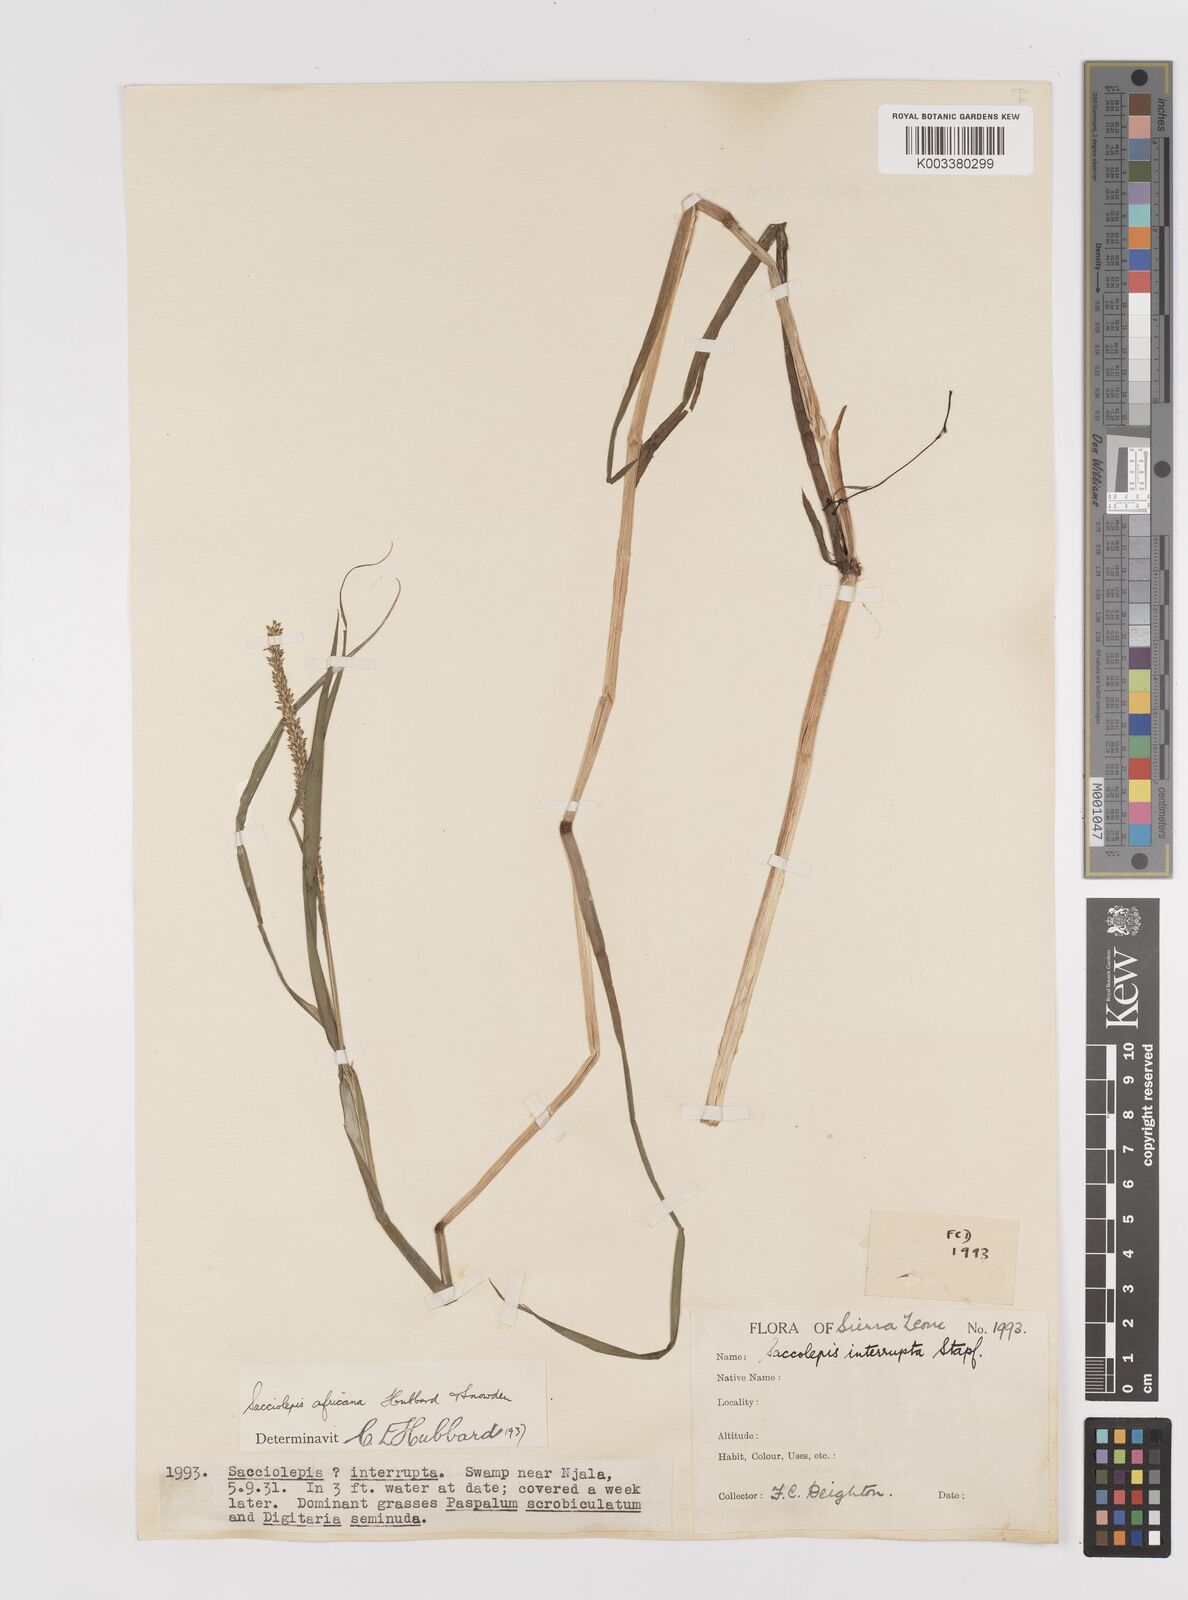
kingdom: Plantae
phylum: Tracheophyta
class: Liliopsida
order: Poales
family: Poaceae
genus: Sacciolepis
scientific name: Sacciolepis africana
